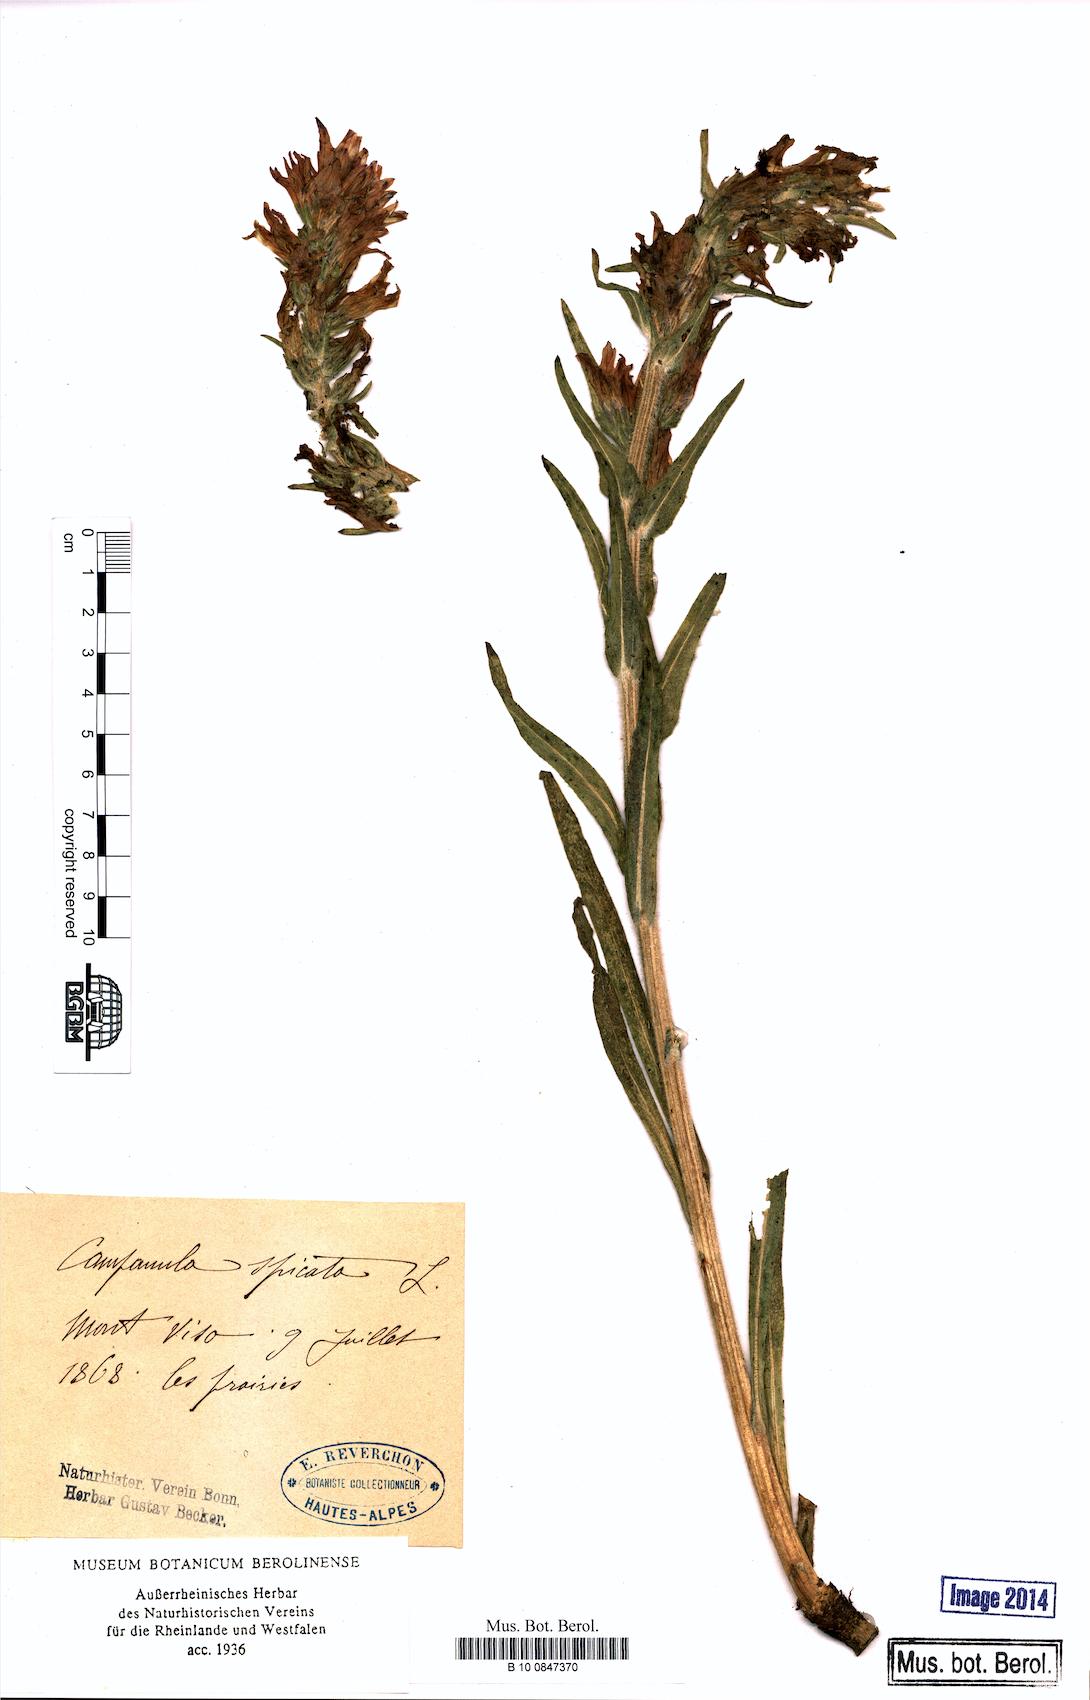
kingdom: Plantae
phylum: Tracheophyta
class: Magnoliopsida
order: Asterales
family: Campanulaceae
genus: Campanula
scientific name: Campanula spicata
